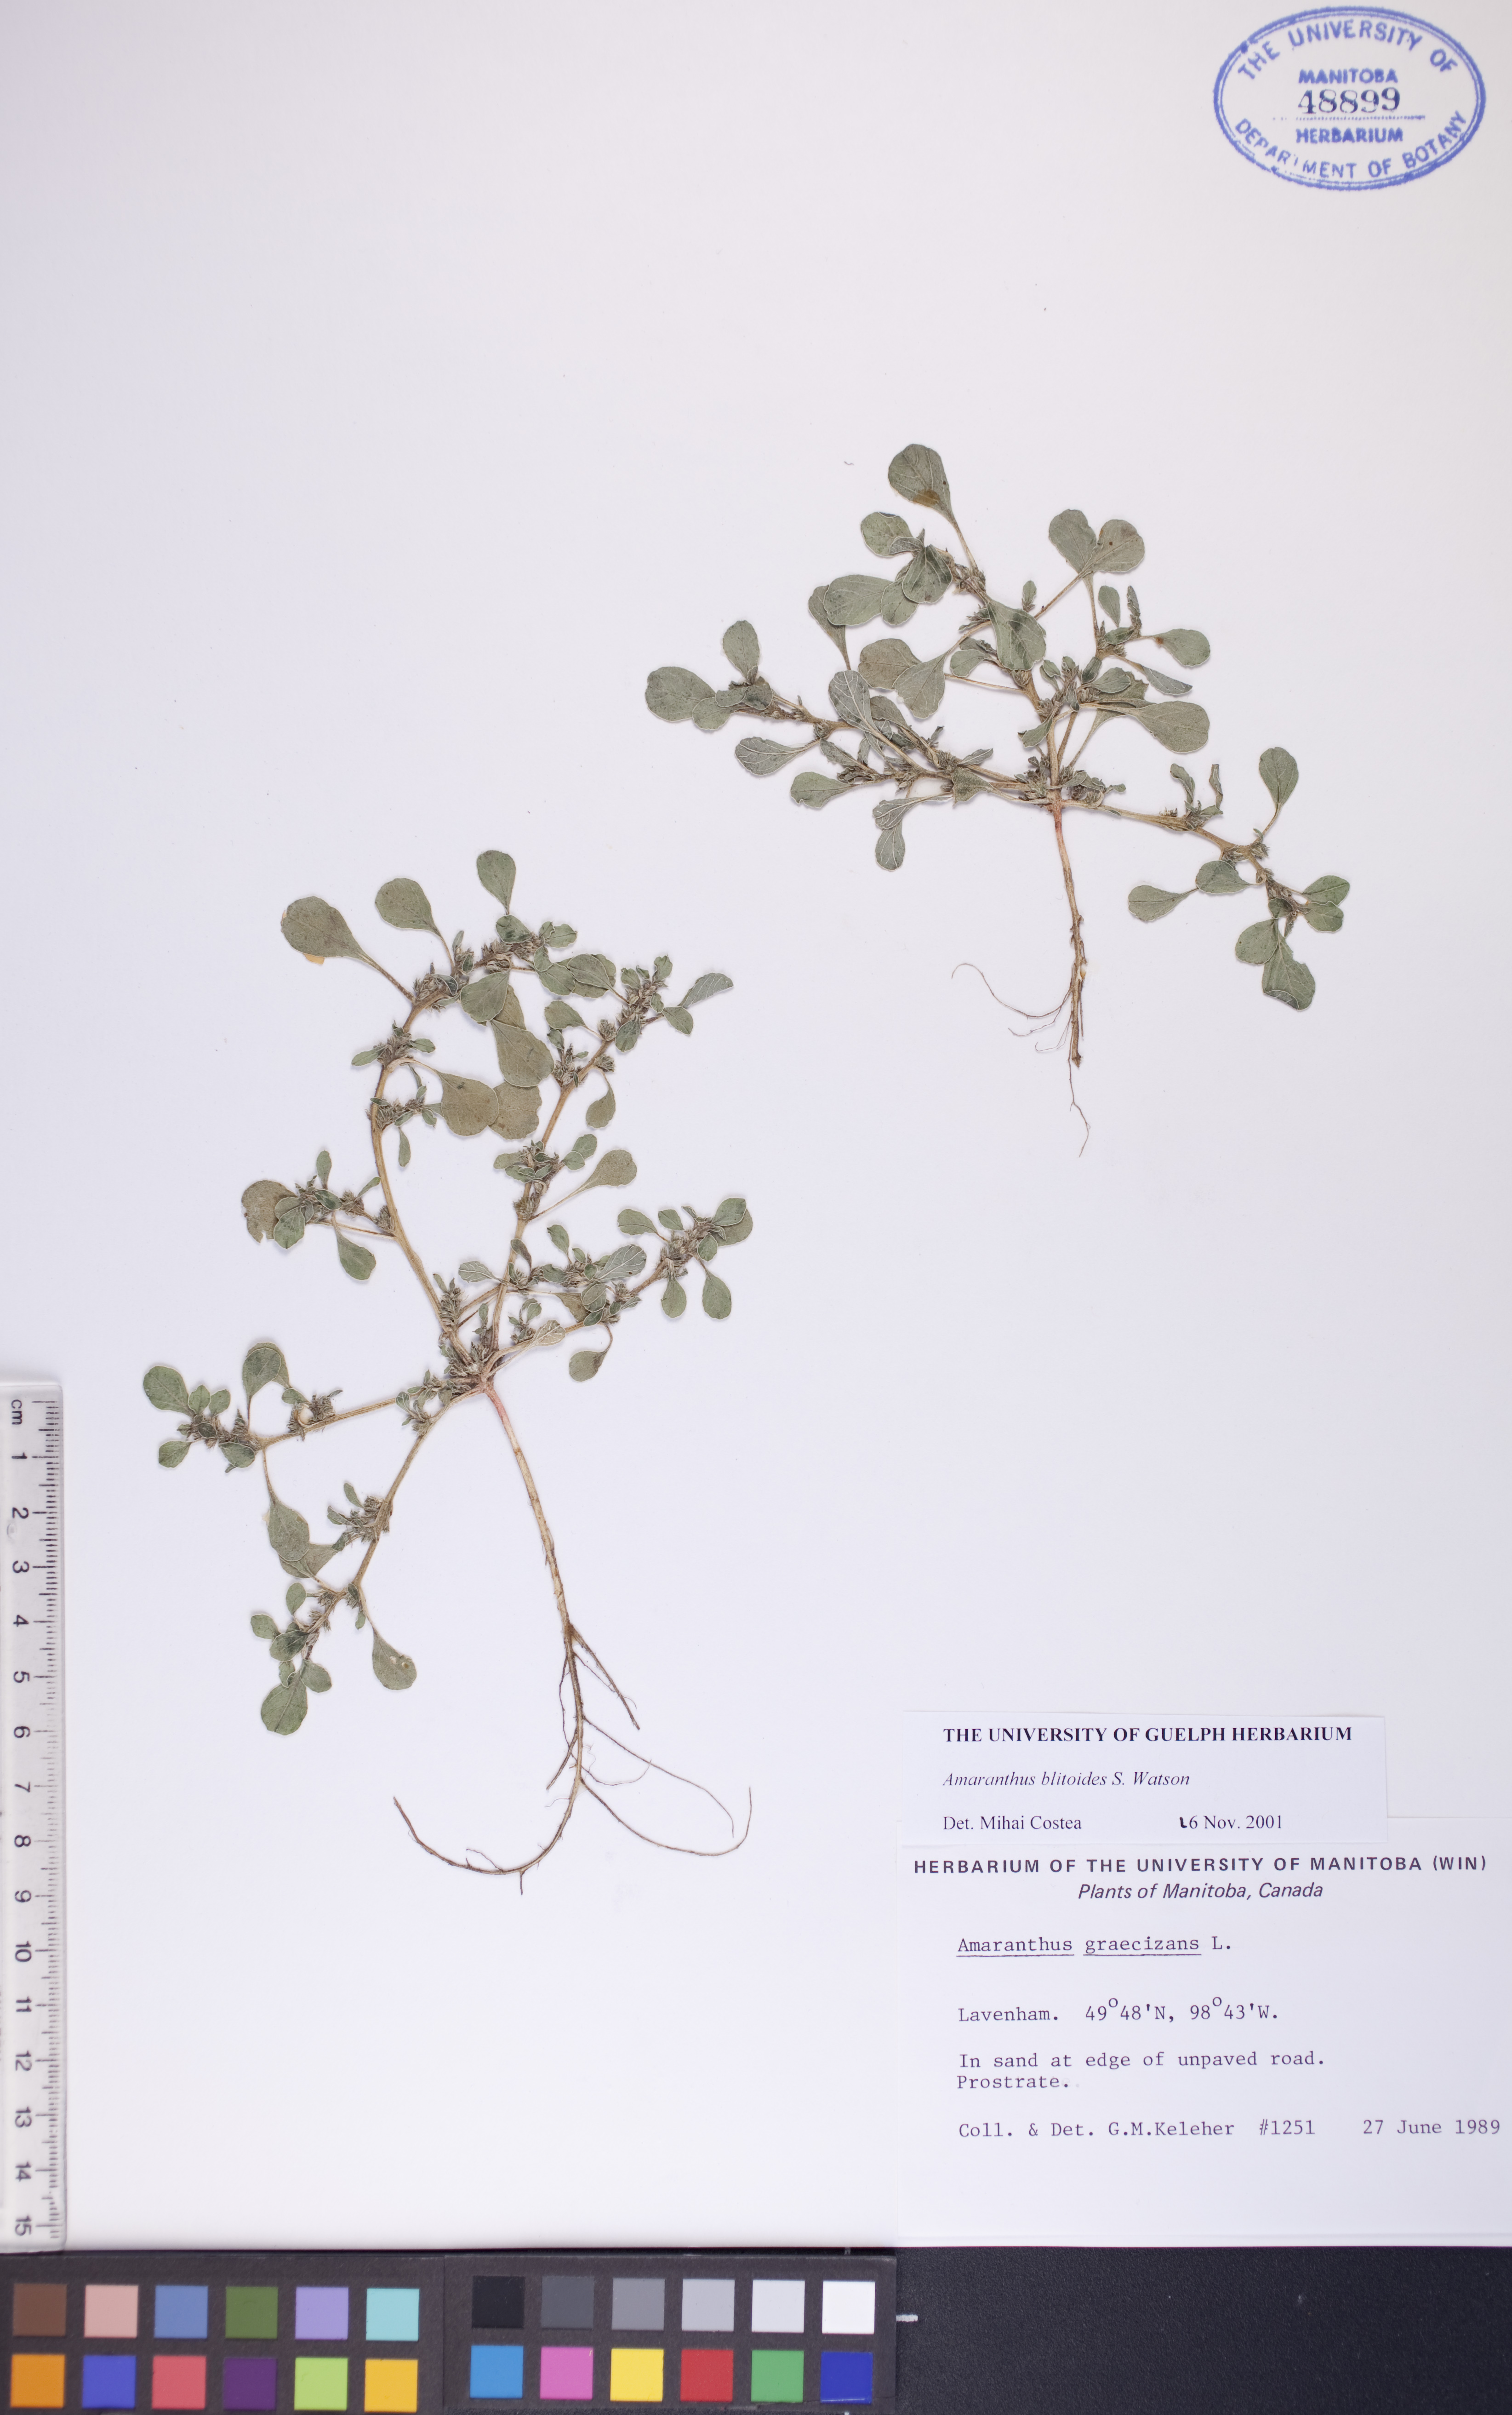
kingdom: Plantae
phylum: Tracheophyta
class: Magnoliopsida
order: Caryophyllales
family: Amaranthaceae
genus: Amaranthus
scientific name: Amaranthus blitoides
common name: Prostrate pigweed
